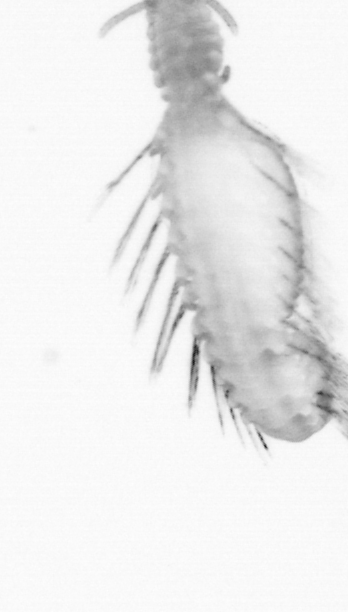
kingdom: Animalia
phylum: Annelida
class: Polychaeta
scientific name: Polychaeta
